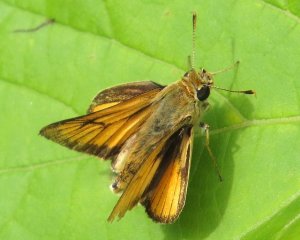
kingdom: Animalia
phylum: Arthropoda
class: Insecta
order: Lepidoptera
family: Hesperiidae
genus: Atrytone
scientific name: Atrytone delaware
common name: Delaware Skipper
